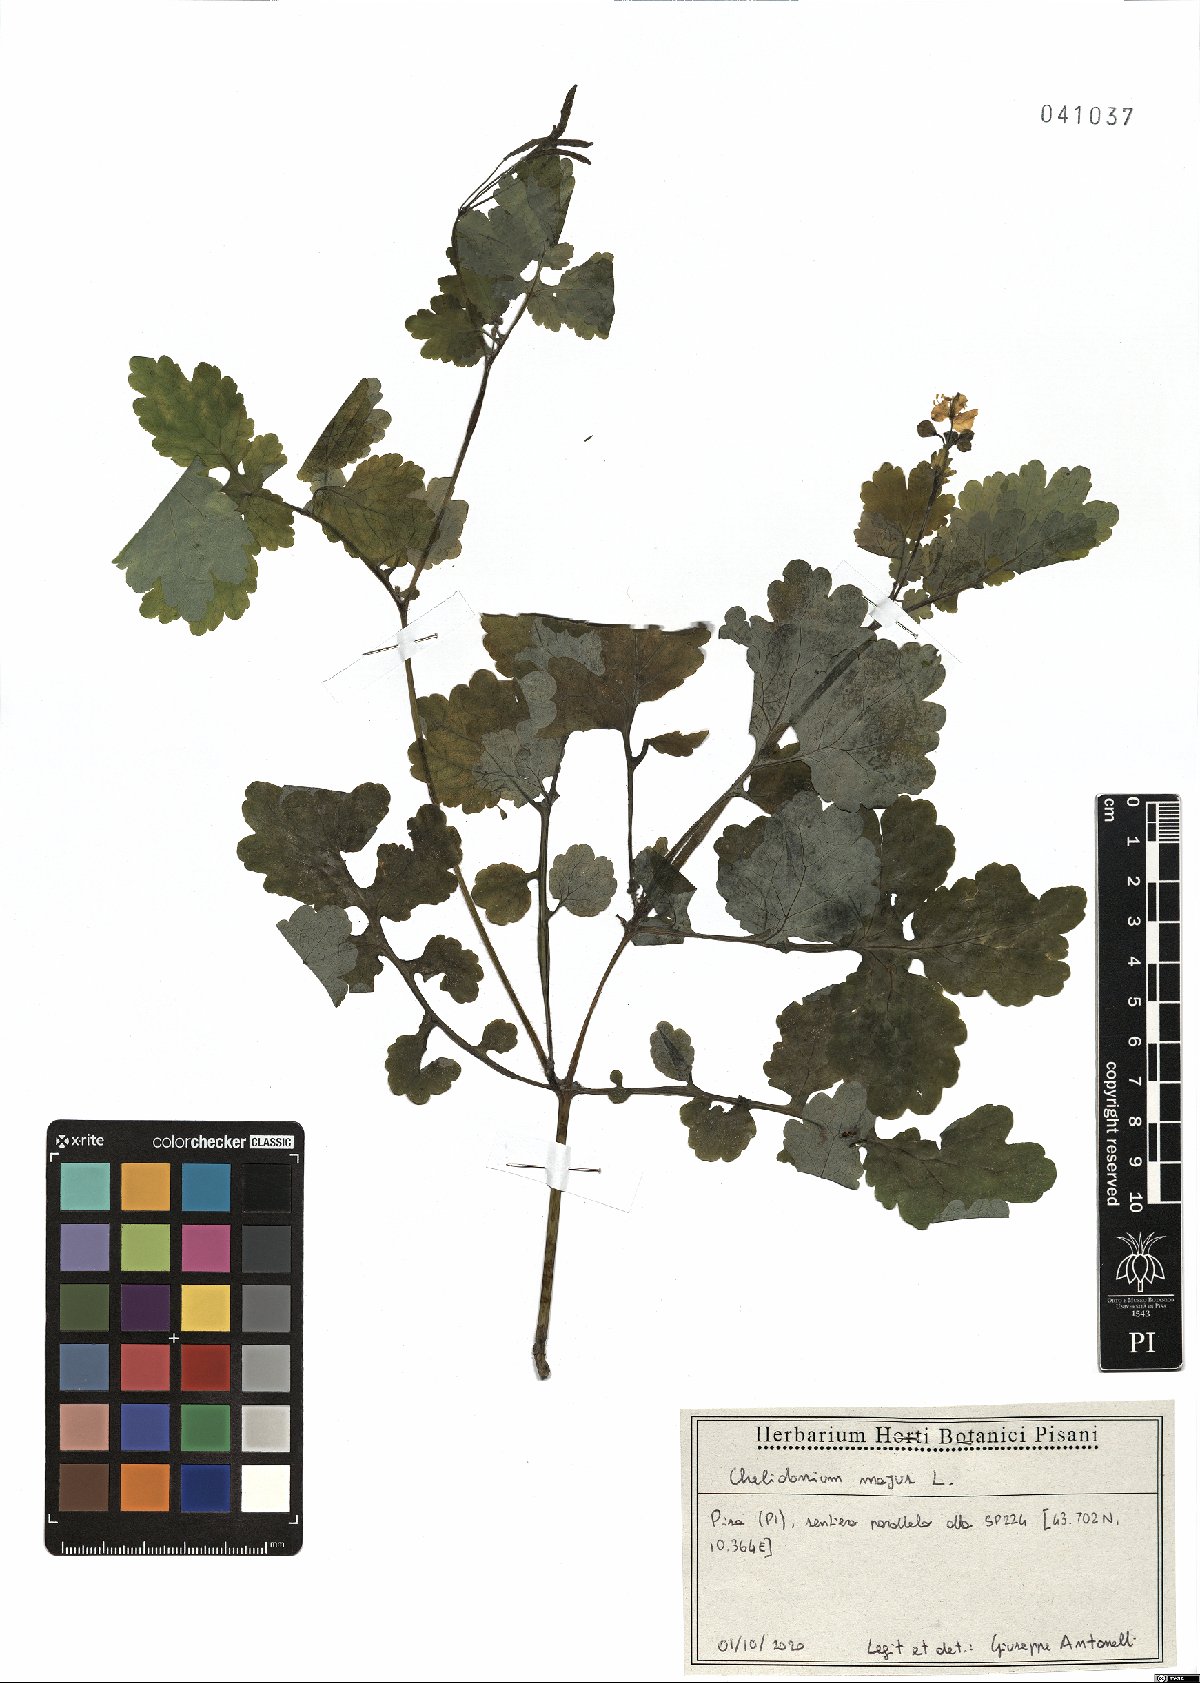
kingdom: Plantae
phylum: Tracheophyta
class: Magnoliopsida
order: Ranunculales
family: Papaveraceae
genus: Chelidonium
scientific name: Chelidonium majus
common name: Greater celandine
